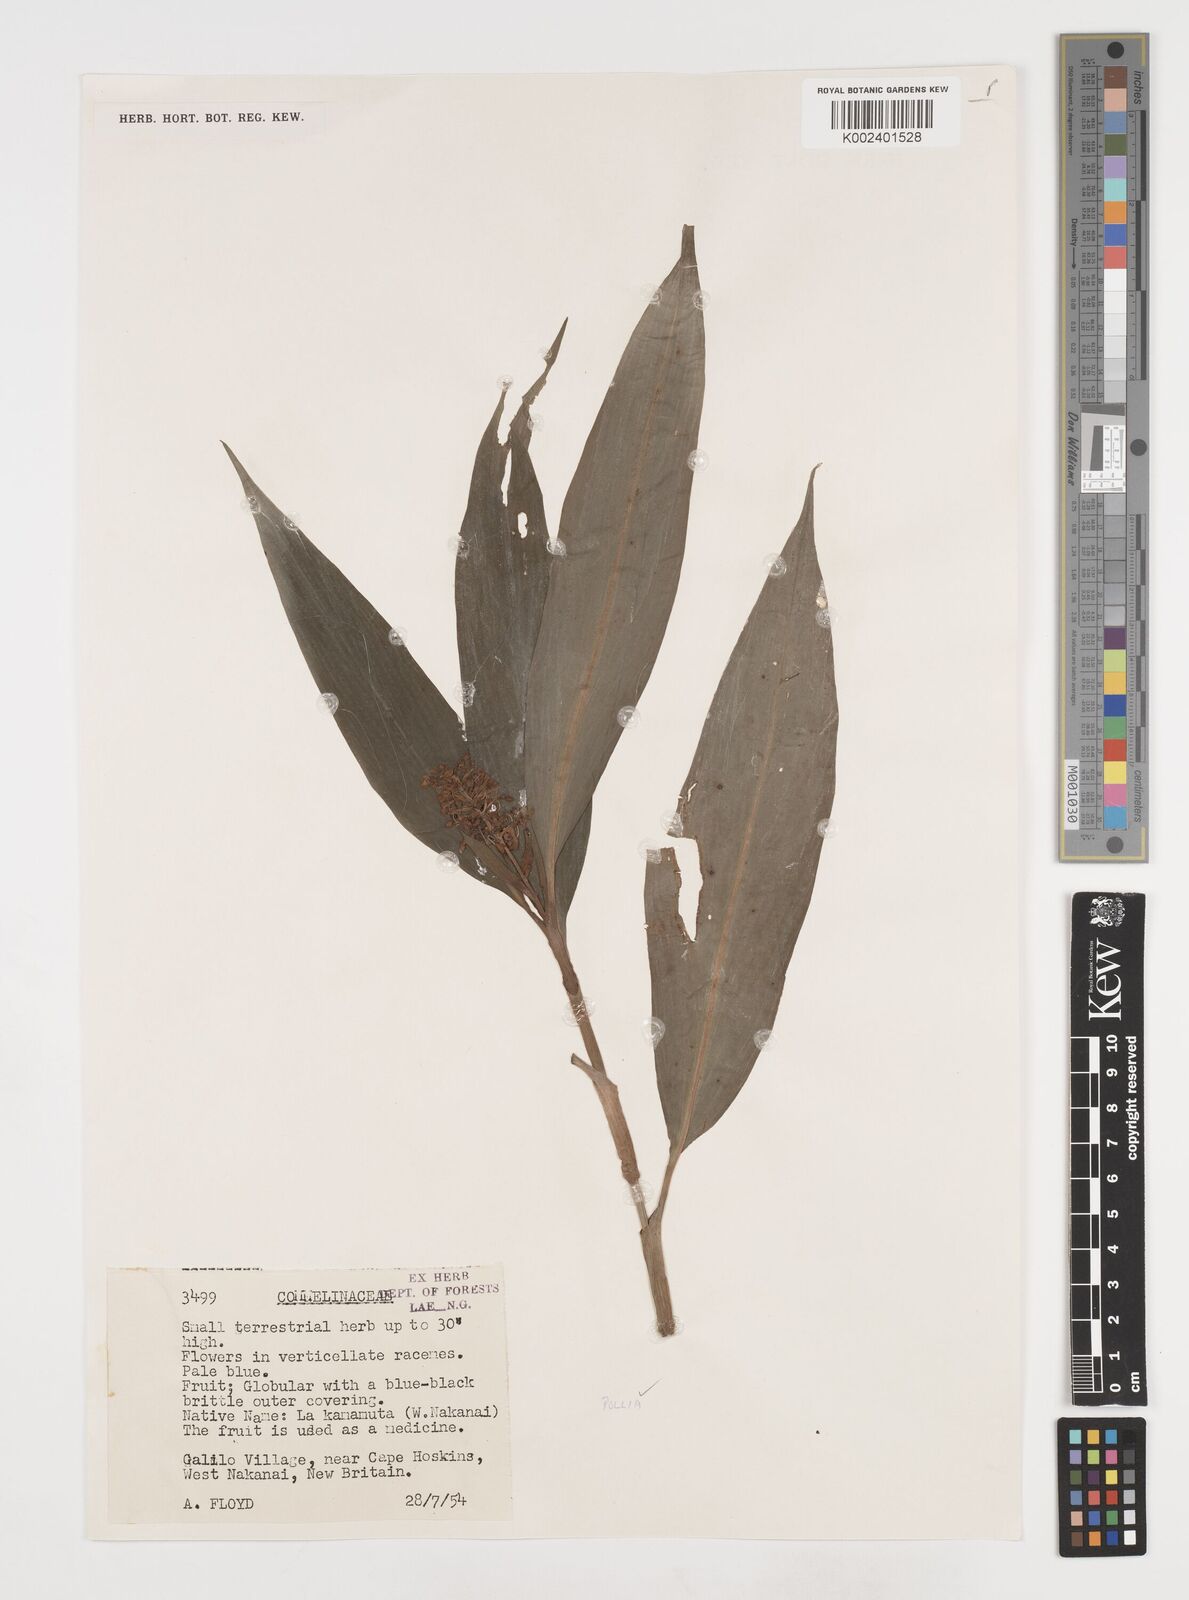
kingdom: Plantae
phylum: Tracheophyta
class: Liliopsida
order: Commelinales
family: Commelinaceae
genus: Pollia
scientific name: Pollia
